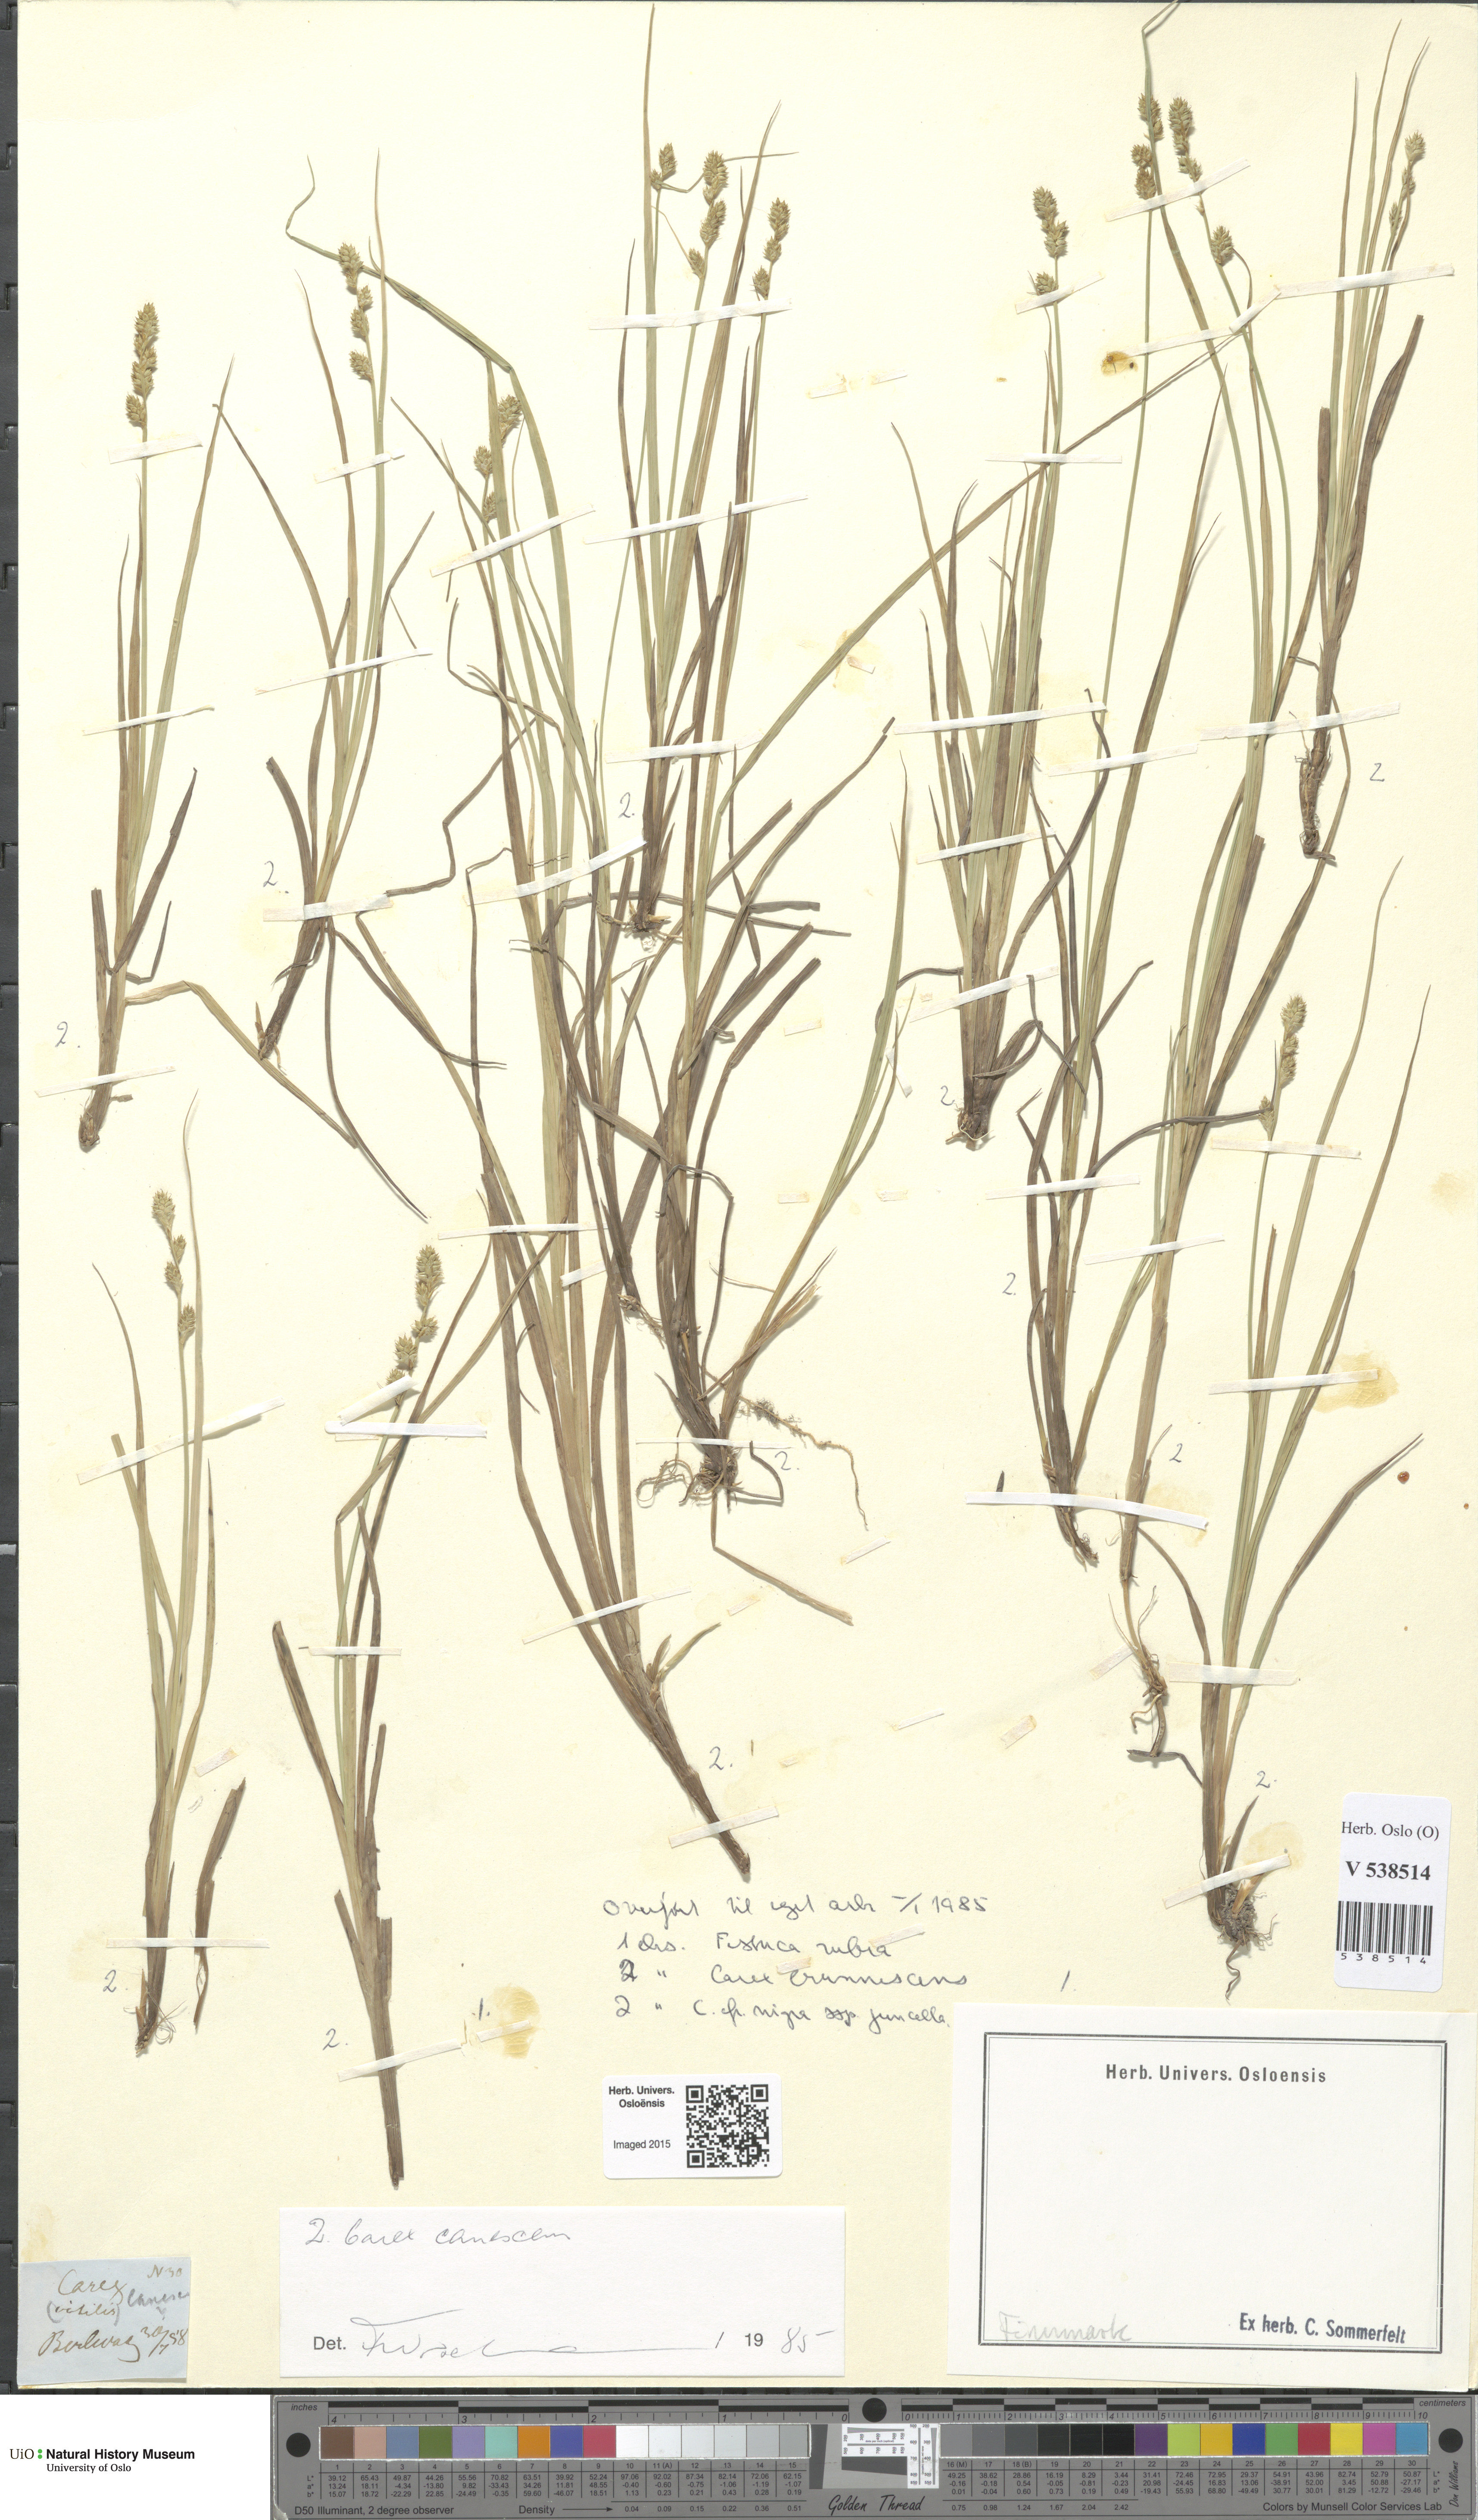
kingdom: Plantae
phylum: Tracheophyta
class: Liliopsida
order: Poales
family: Cyperaceae
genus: Carex
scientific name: Carex canescens
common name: White sedge
